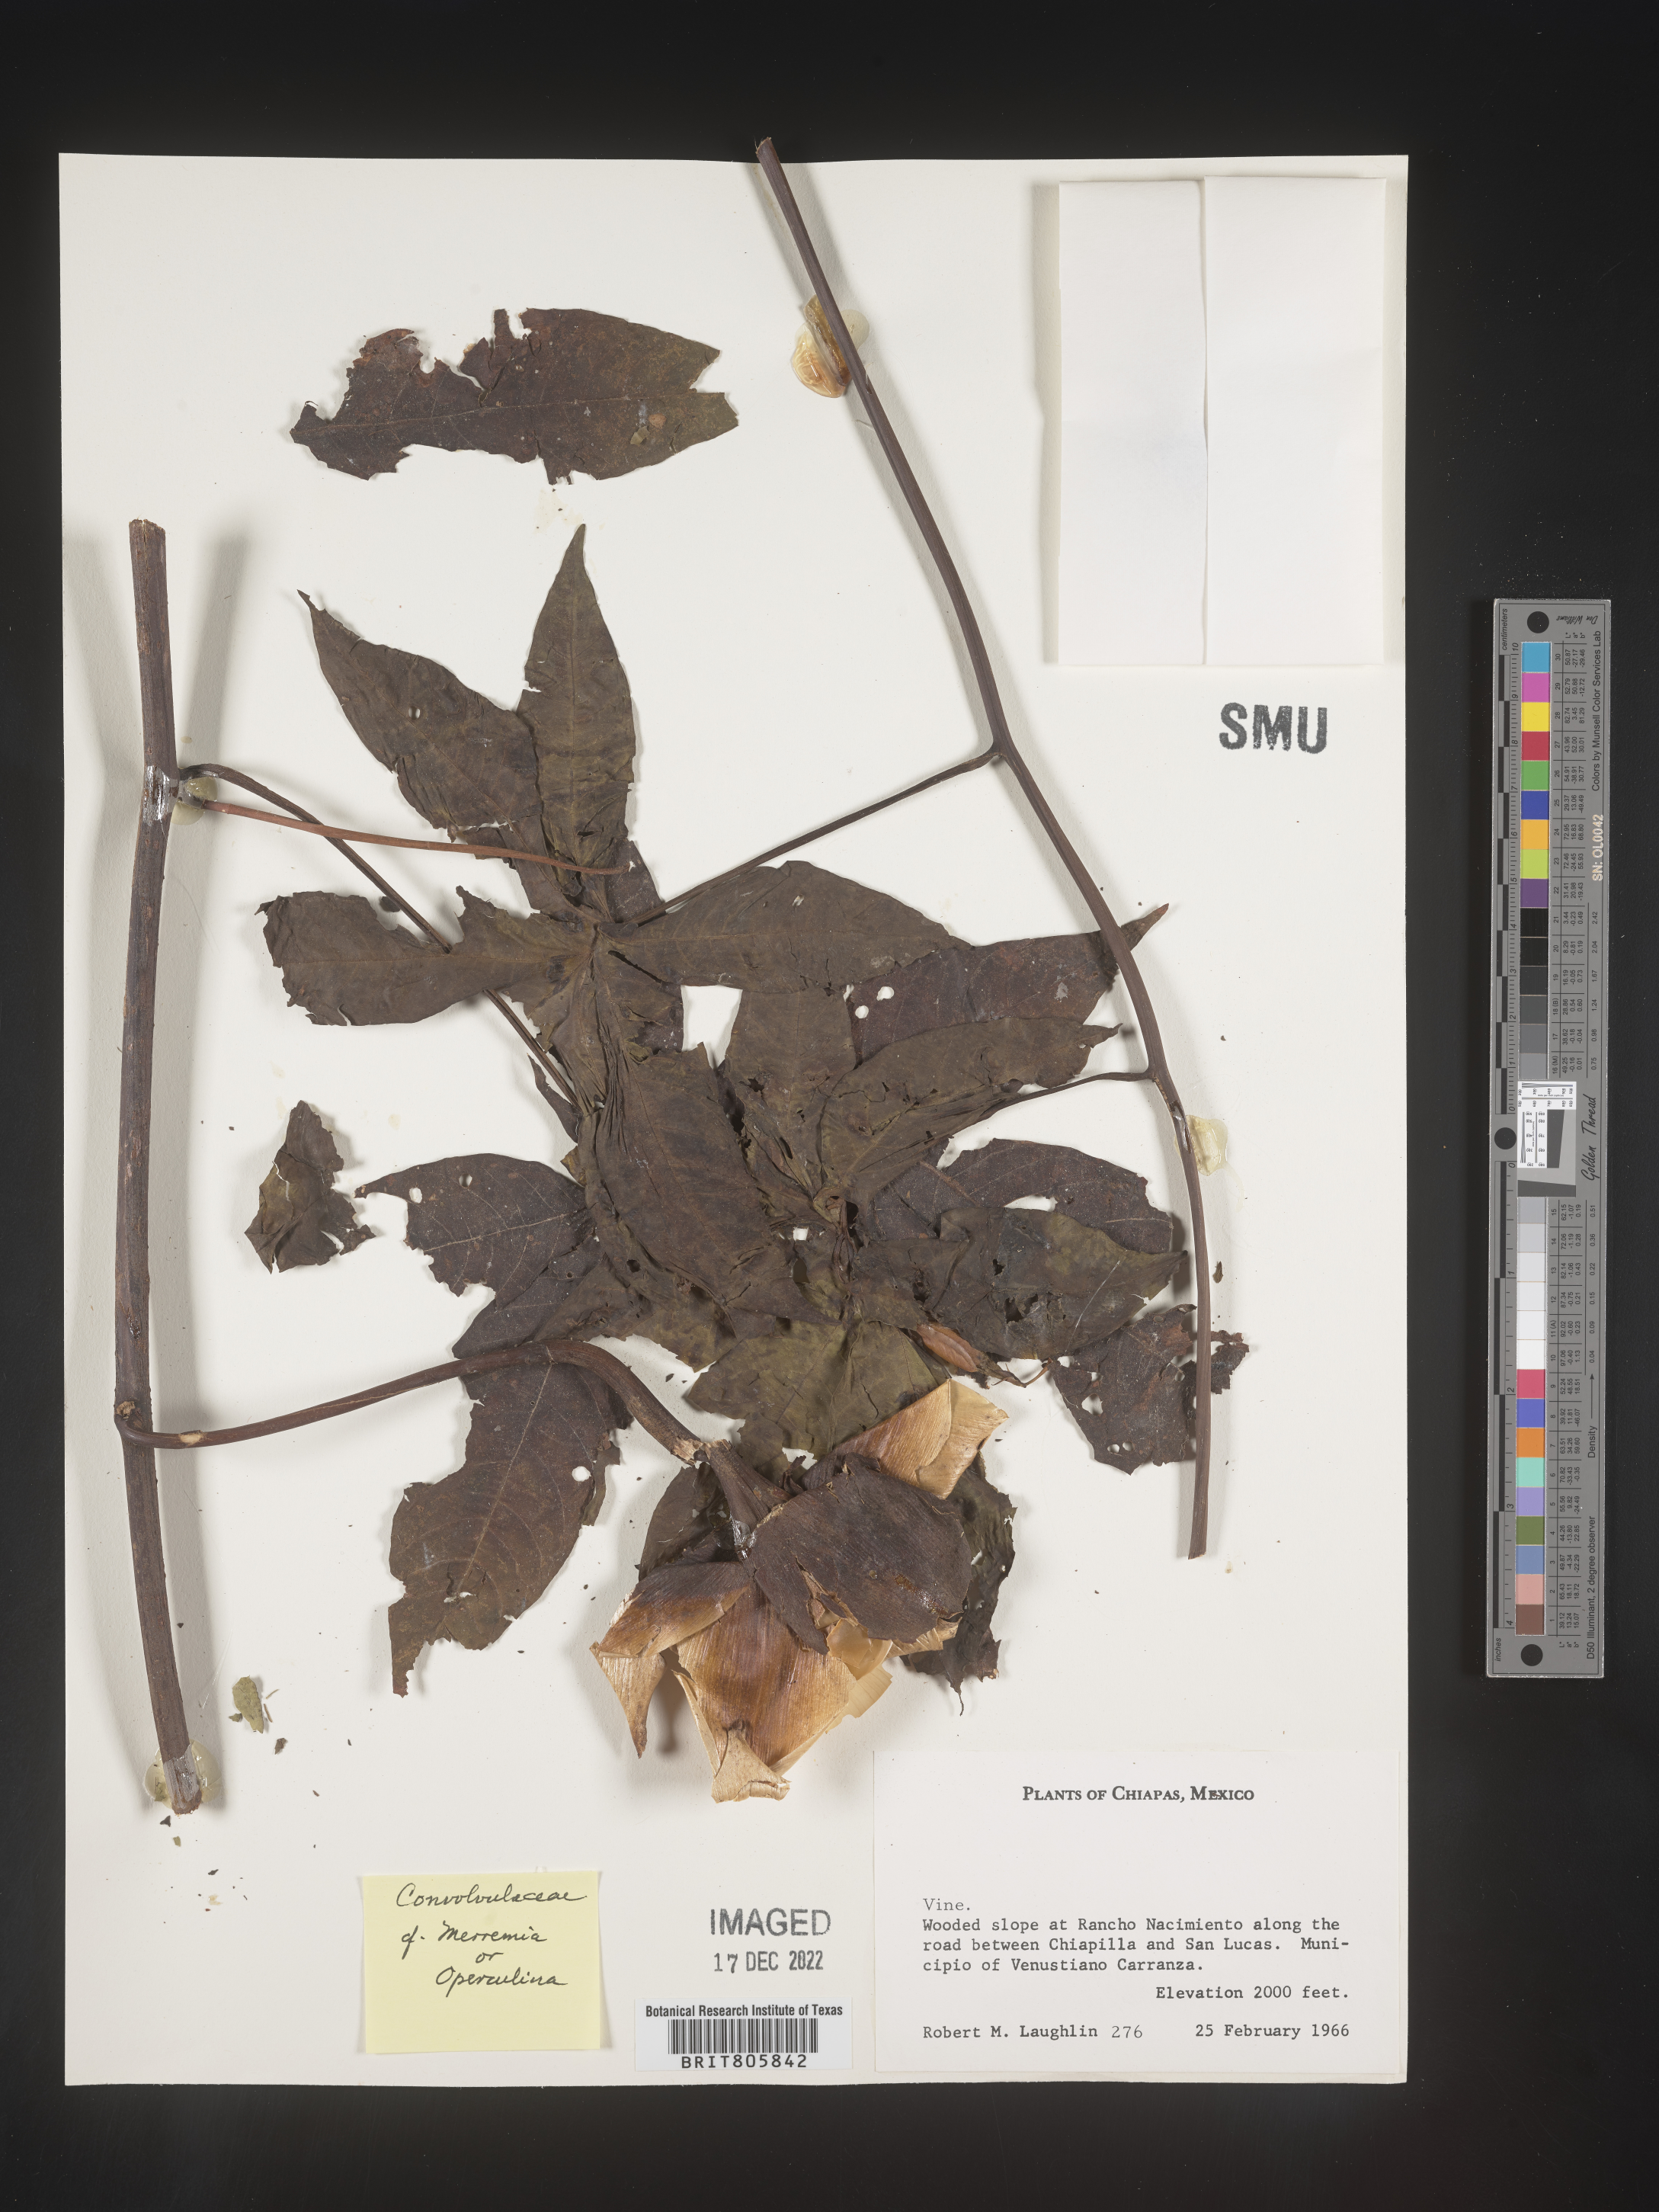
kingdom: Plantae
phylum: Tracheophyta
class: Magnoliopsida
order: Solanales
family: Convolvulaceae
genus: Merremia
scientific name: Merremia
